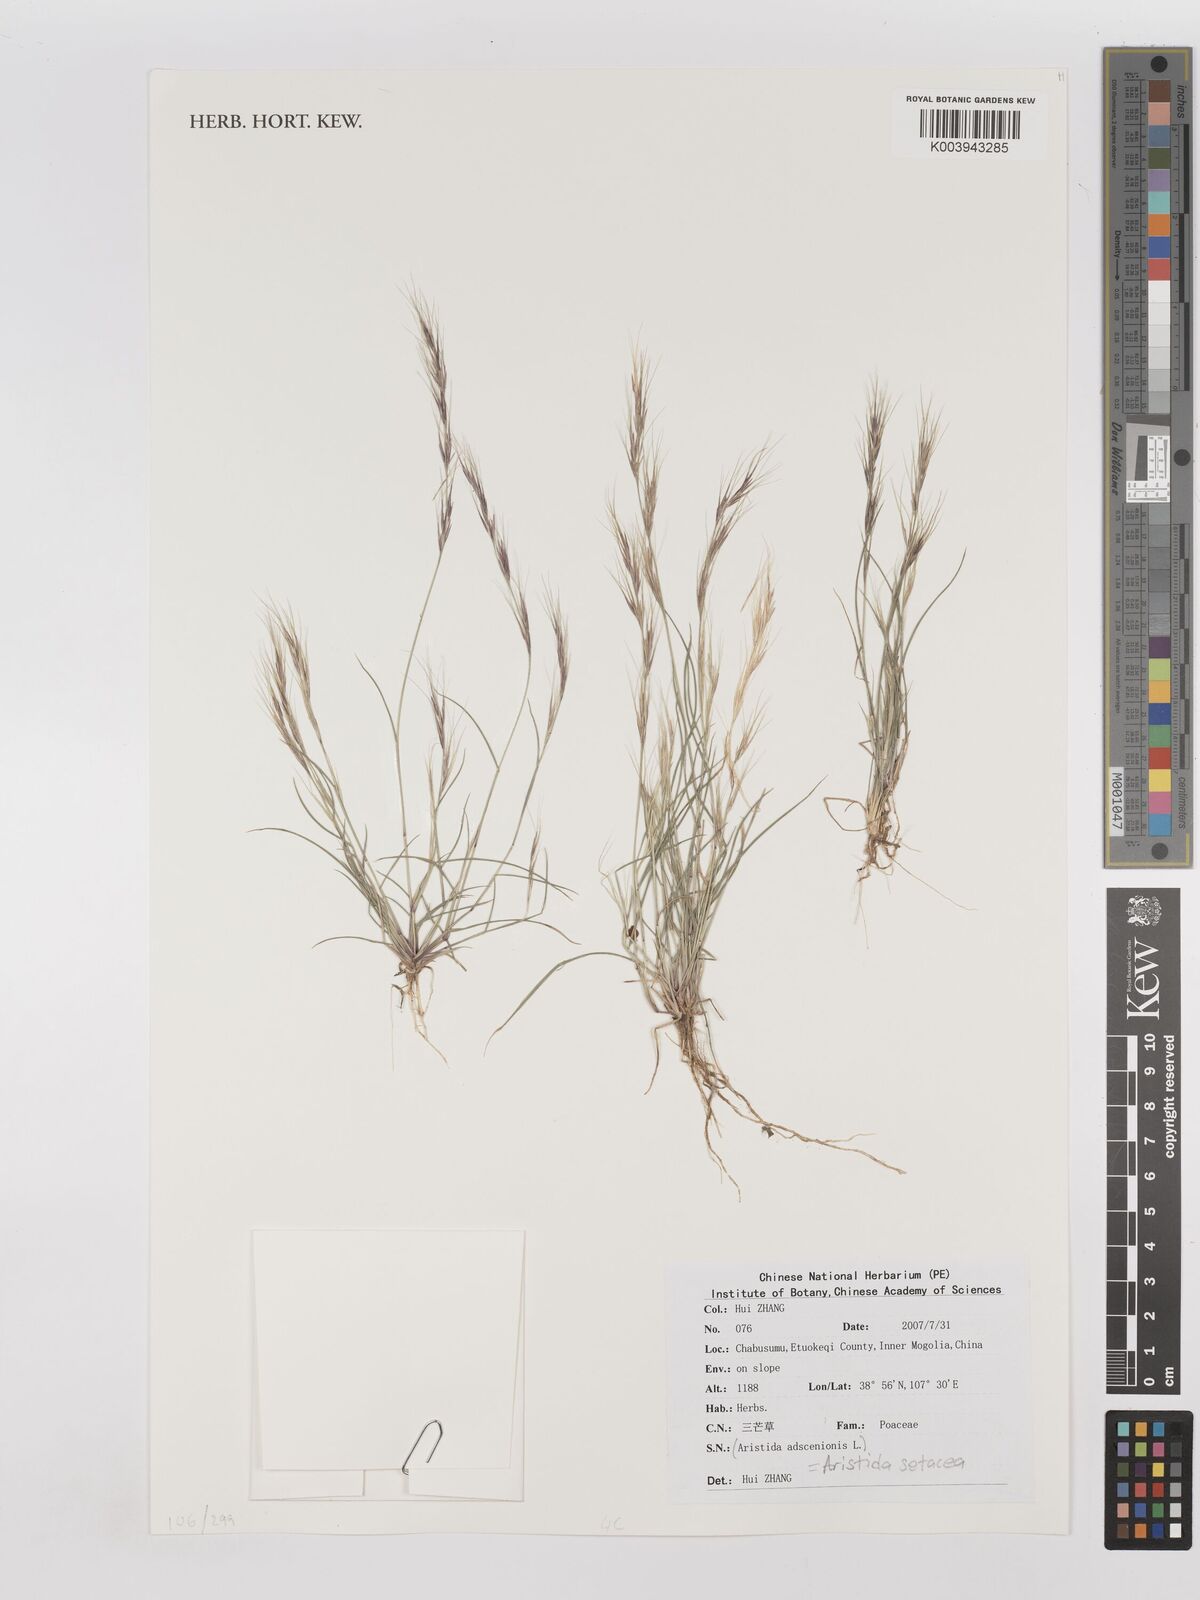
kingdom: Plantae
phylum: Tracheophyta
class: Liliopsida
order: Poales
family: Poaceae
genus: Aristida
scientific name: Aristida adscensionis
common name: Sixweeks threeawn
